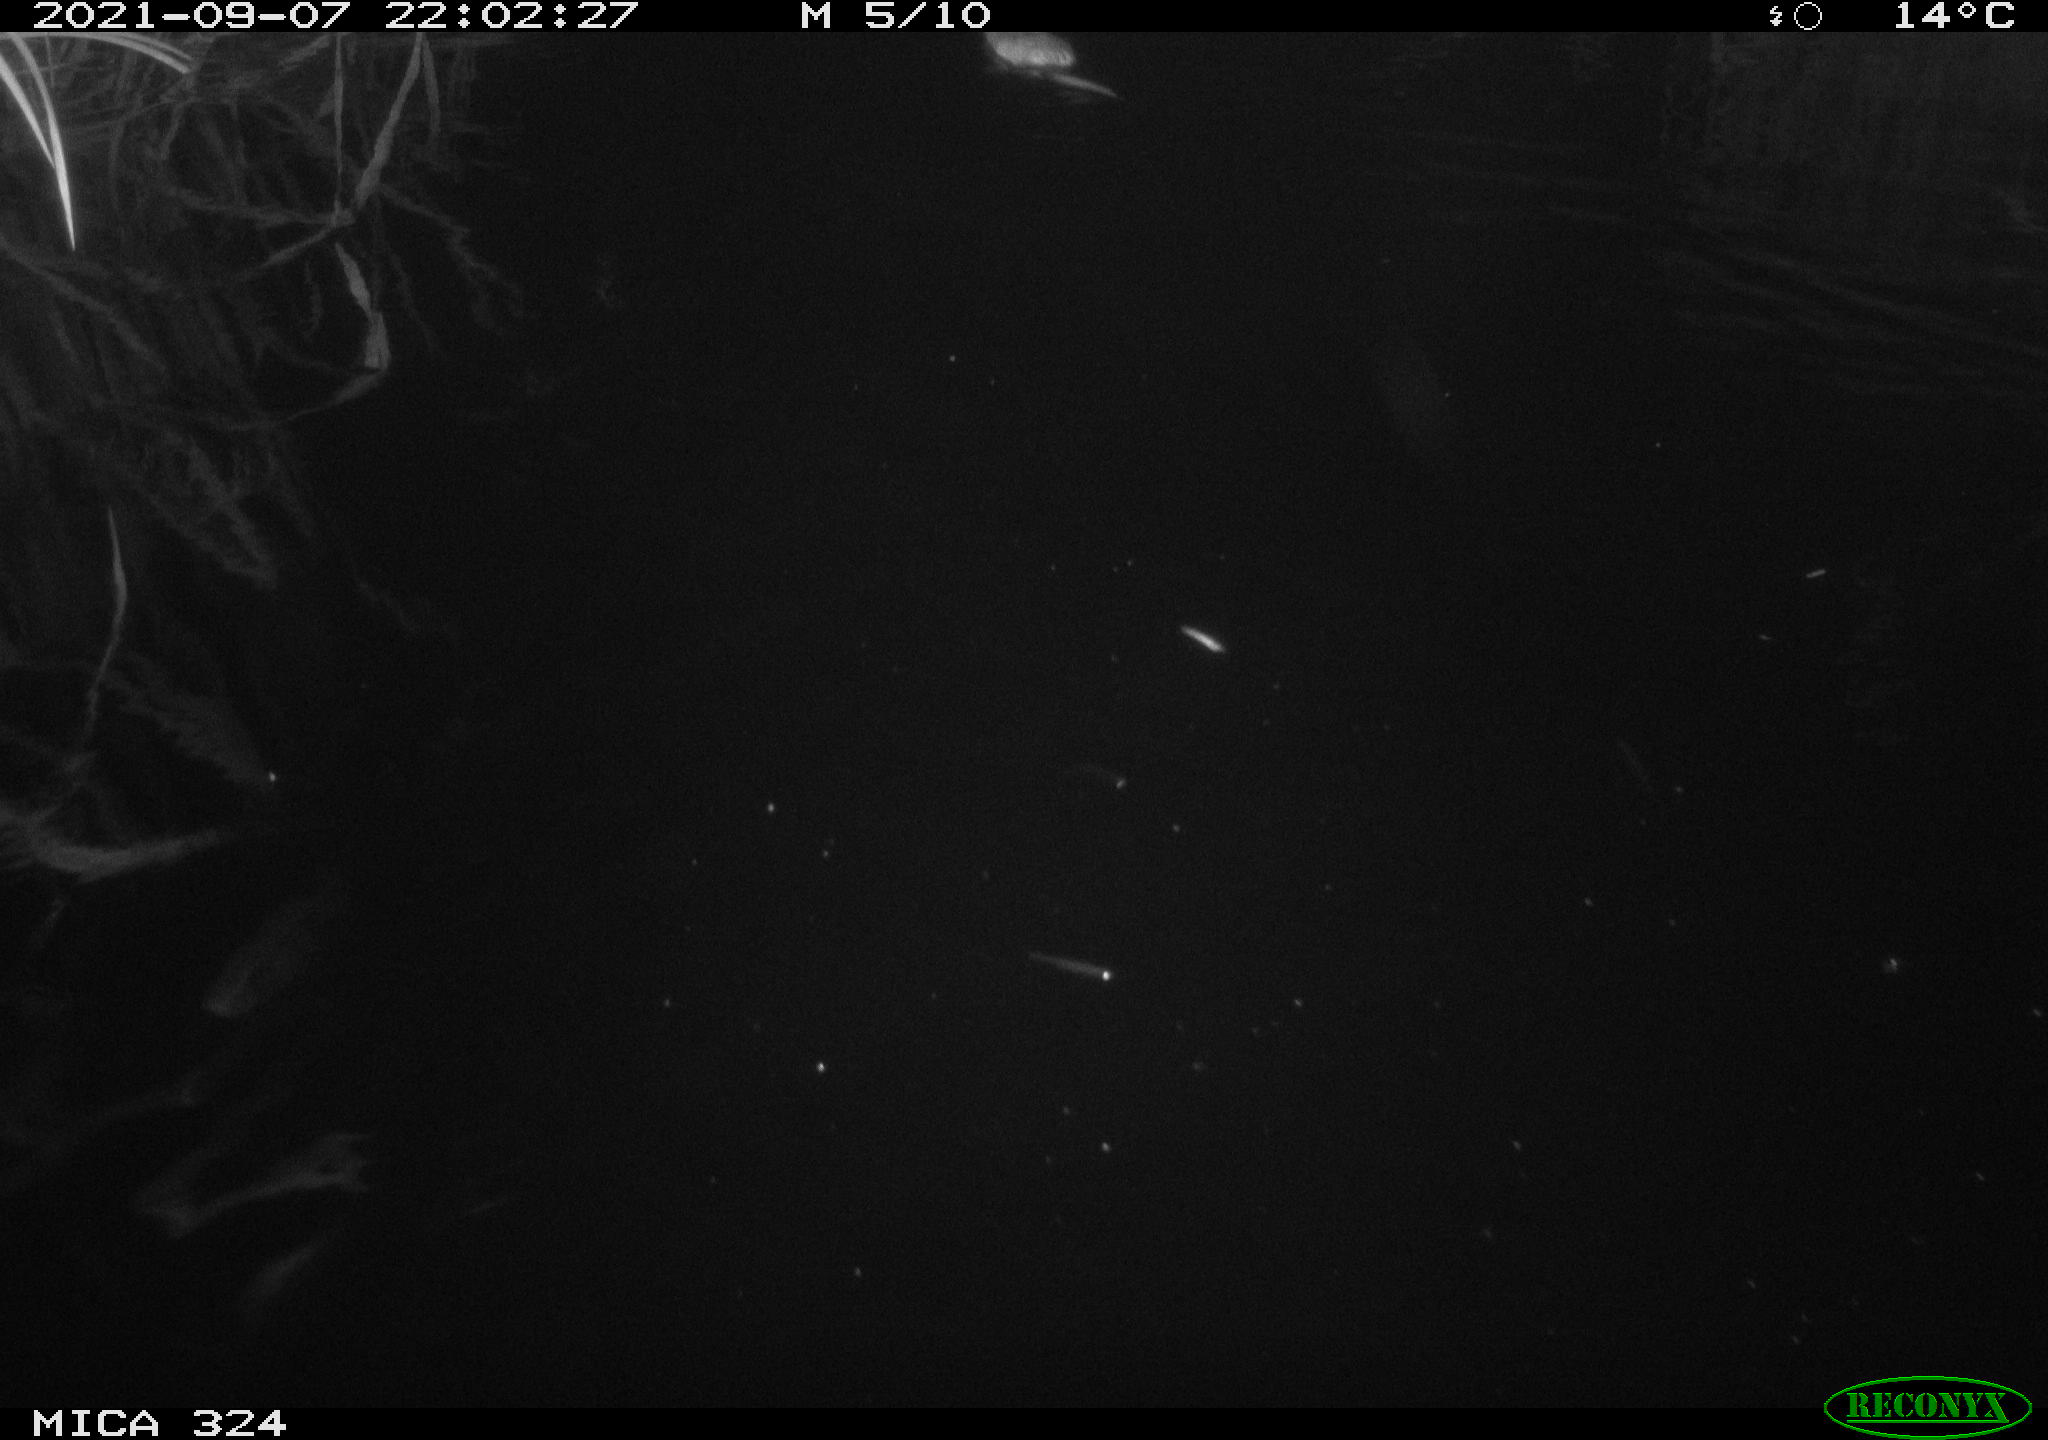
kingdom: Animalia
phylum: Chordata
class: Mammalia
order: Rodentia
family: Cricetidae
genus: Ondatra
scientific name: Ondatra zibethicus
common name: Muskrat
